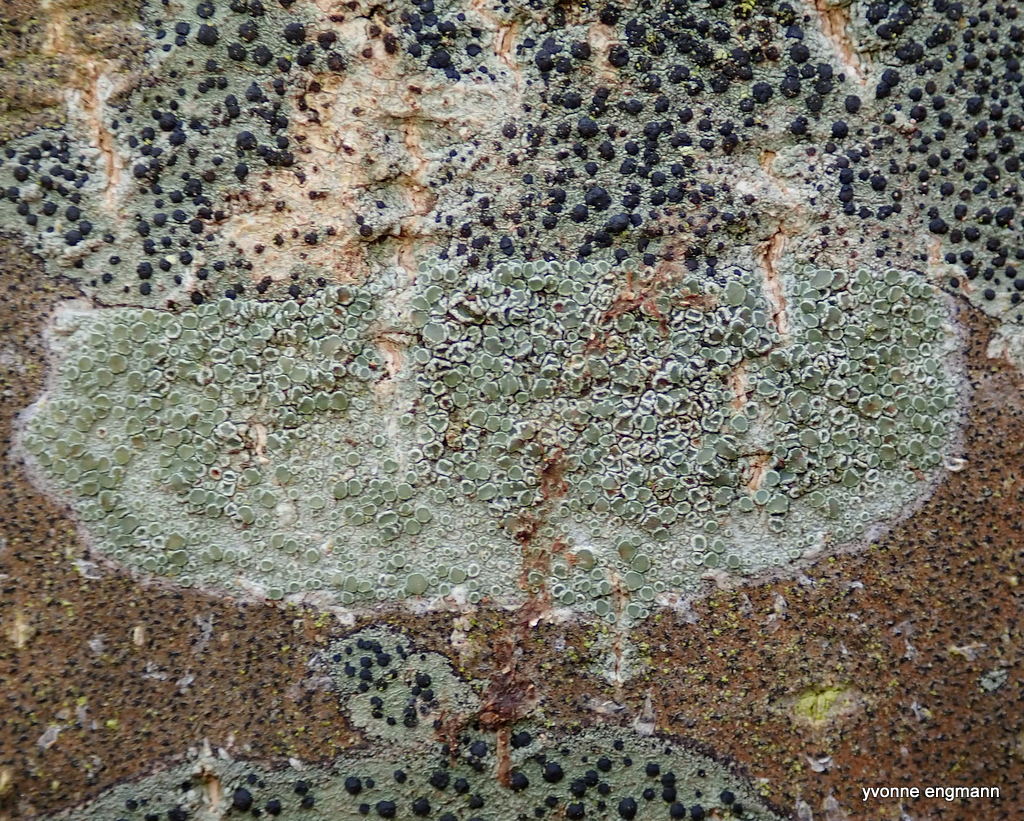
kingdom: Fungi
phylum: Ascomycota
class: Lecanoromycetes
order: Lecanorales
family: Lecanoraceae
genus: Lecanora
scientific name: Lecanora chlarotera
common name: brun kantskivelav
